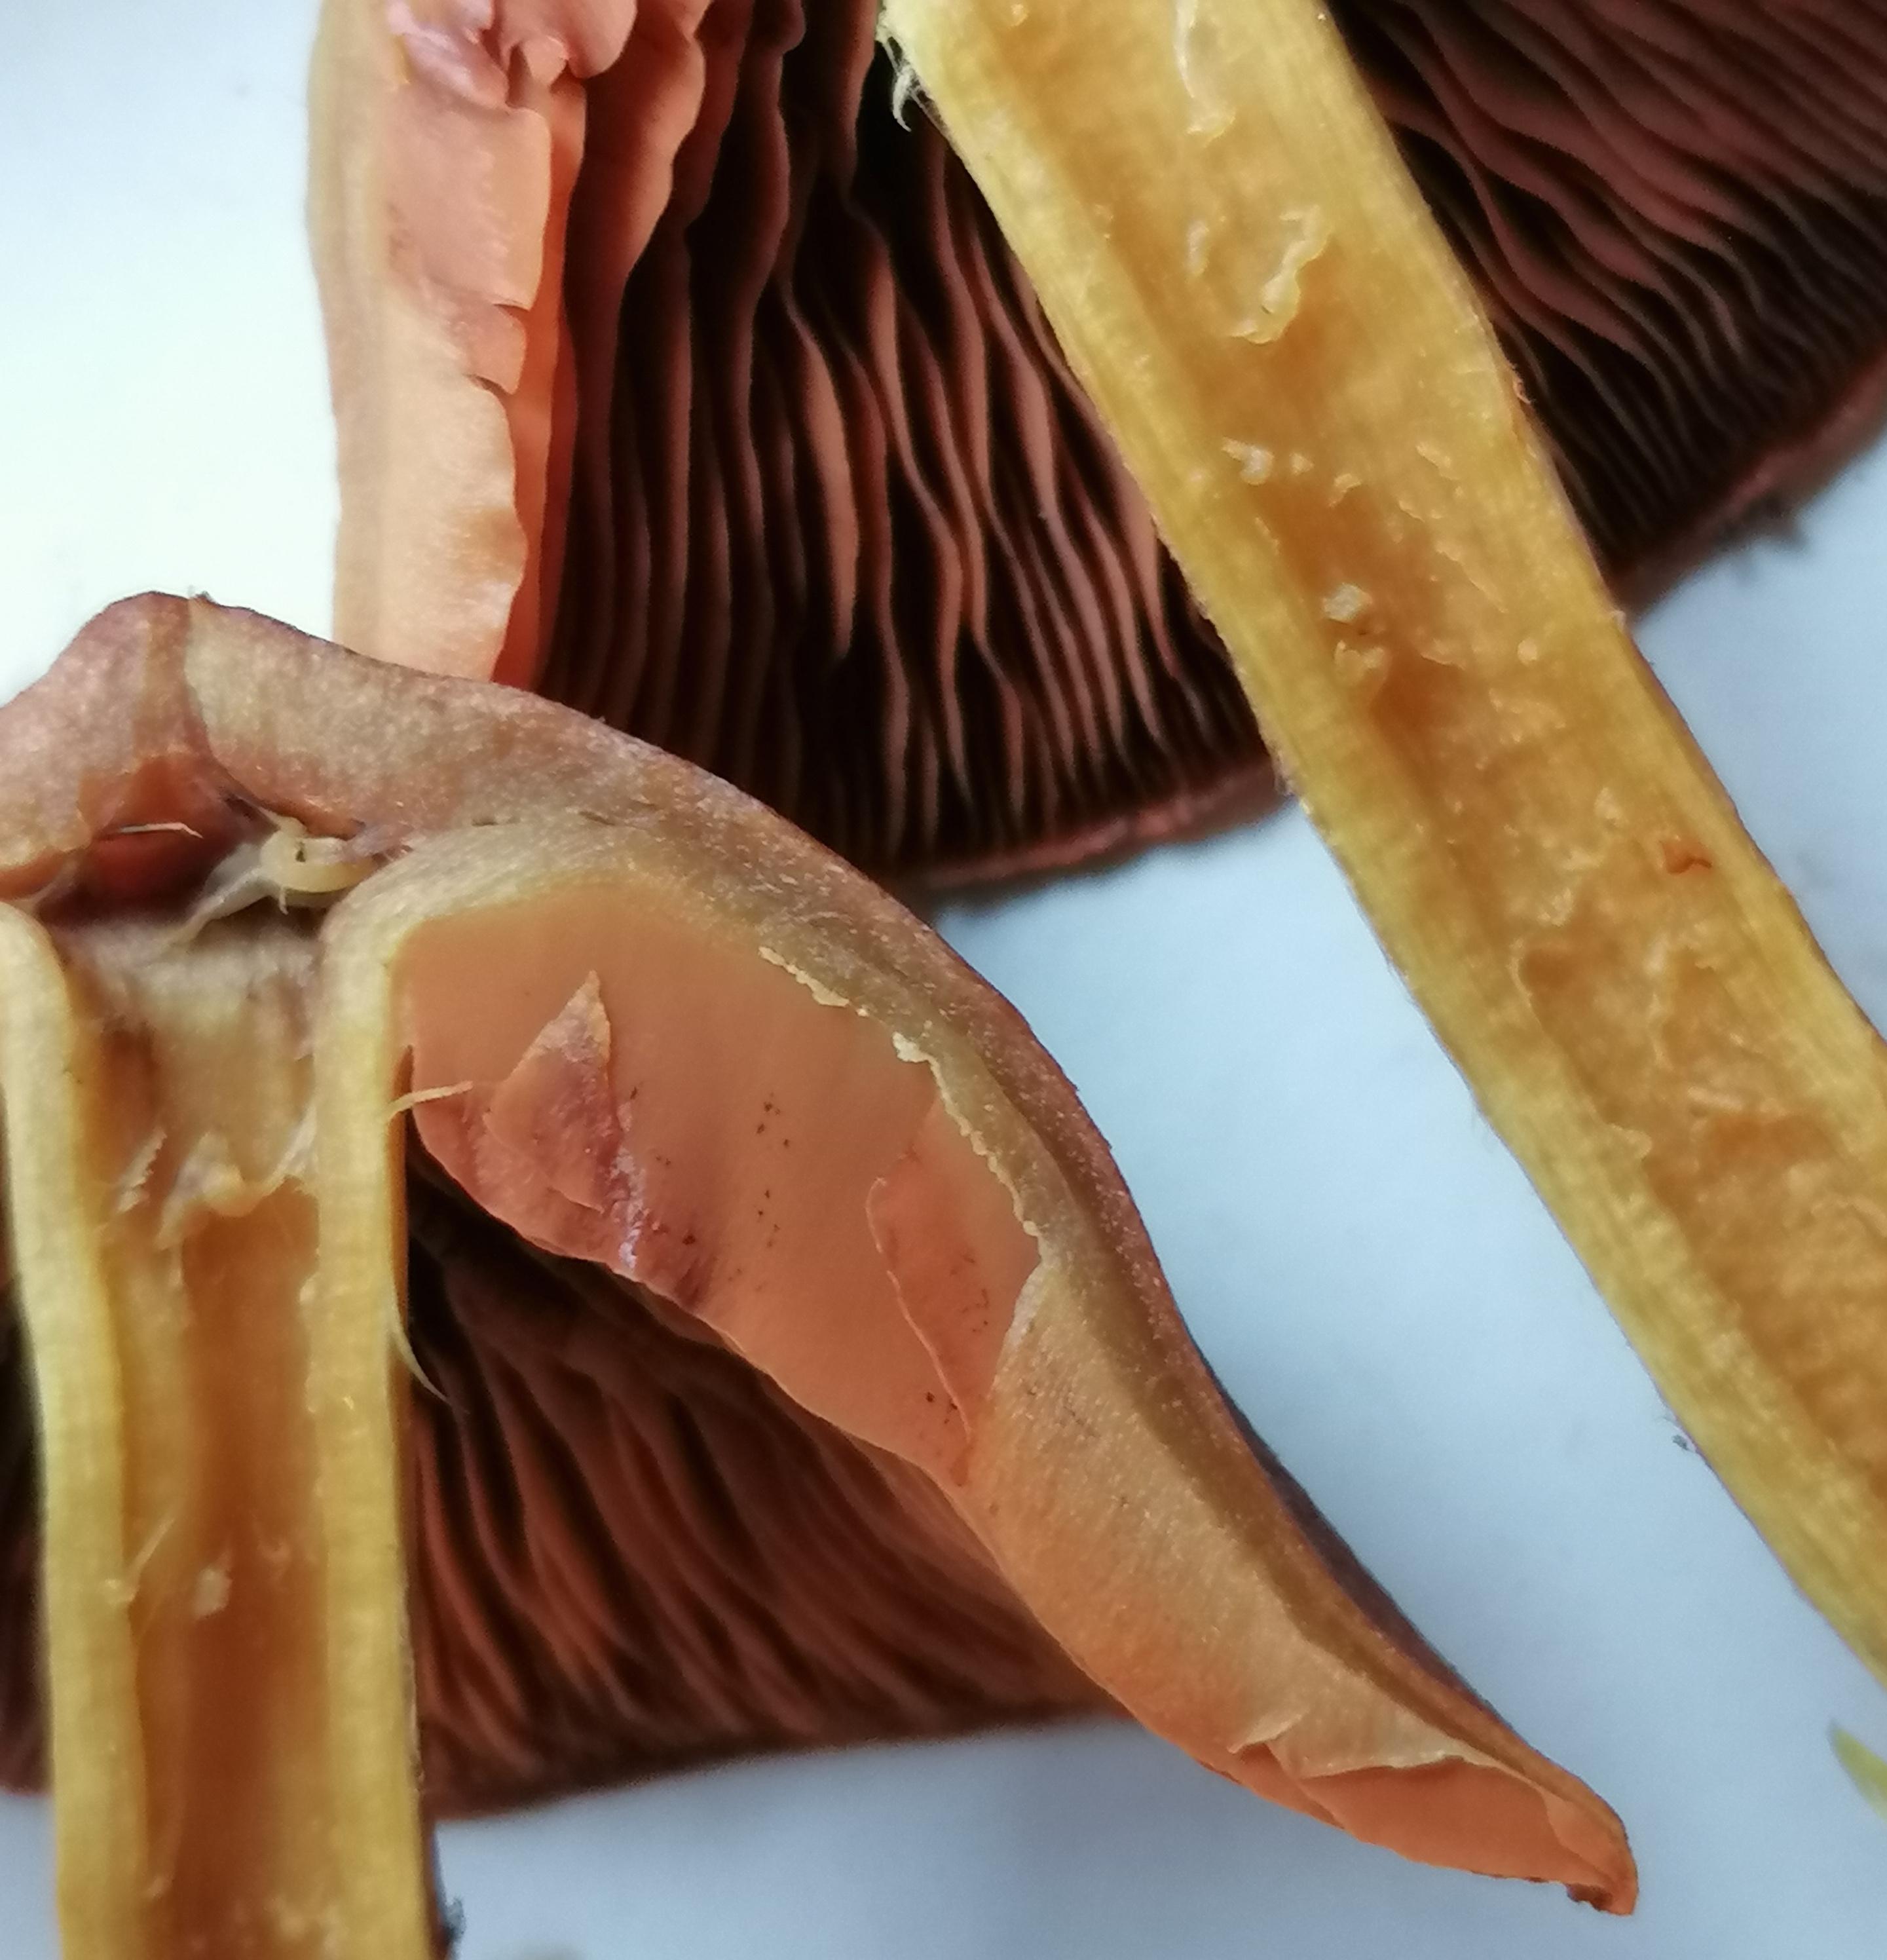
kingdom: Fungi
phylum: Basidiomycota
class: Agaricomycetes
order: Agaricales
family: Cortinariaceae
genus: Cortinarius
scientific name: Cortinarius
